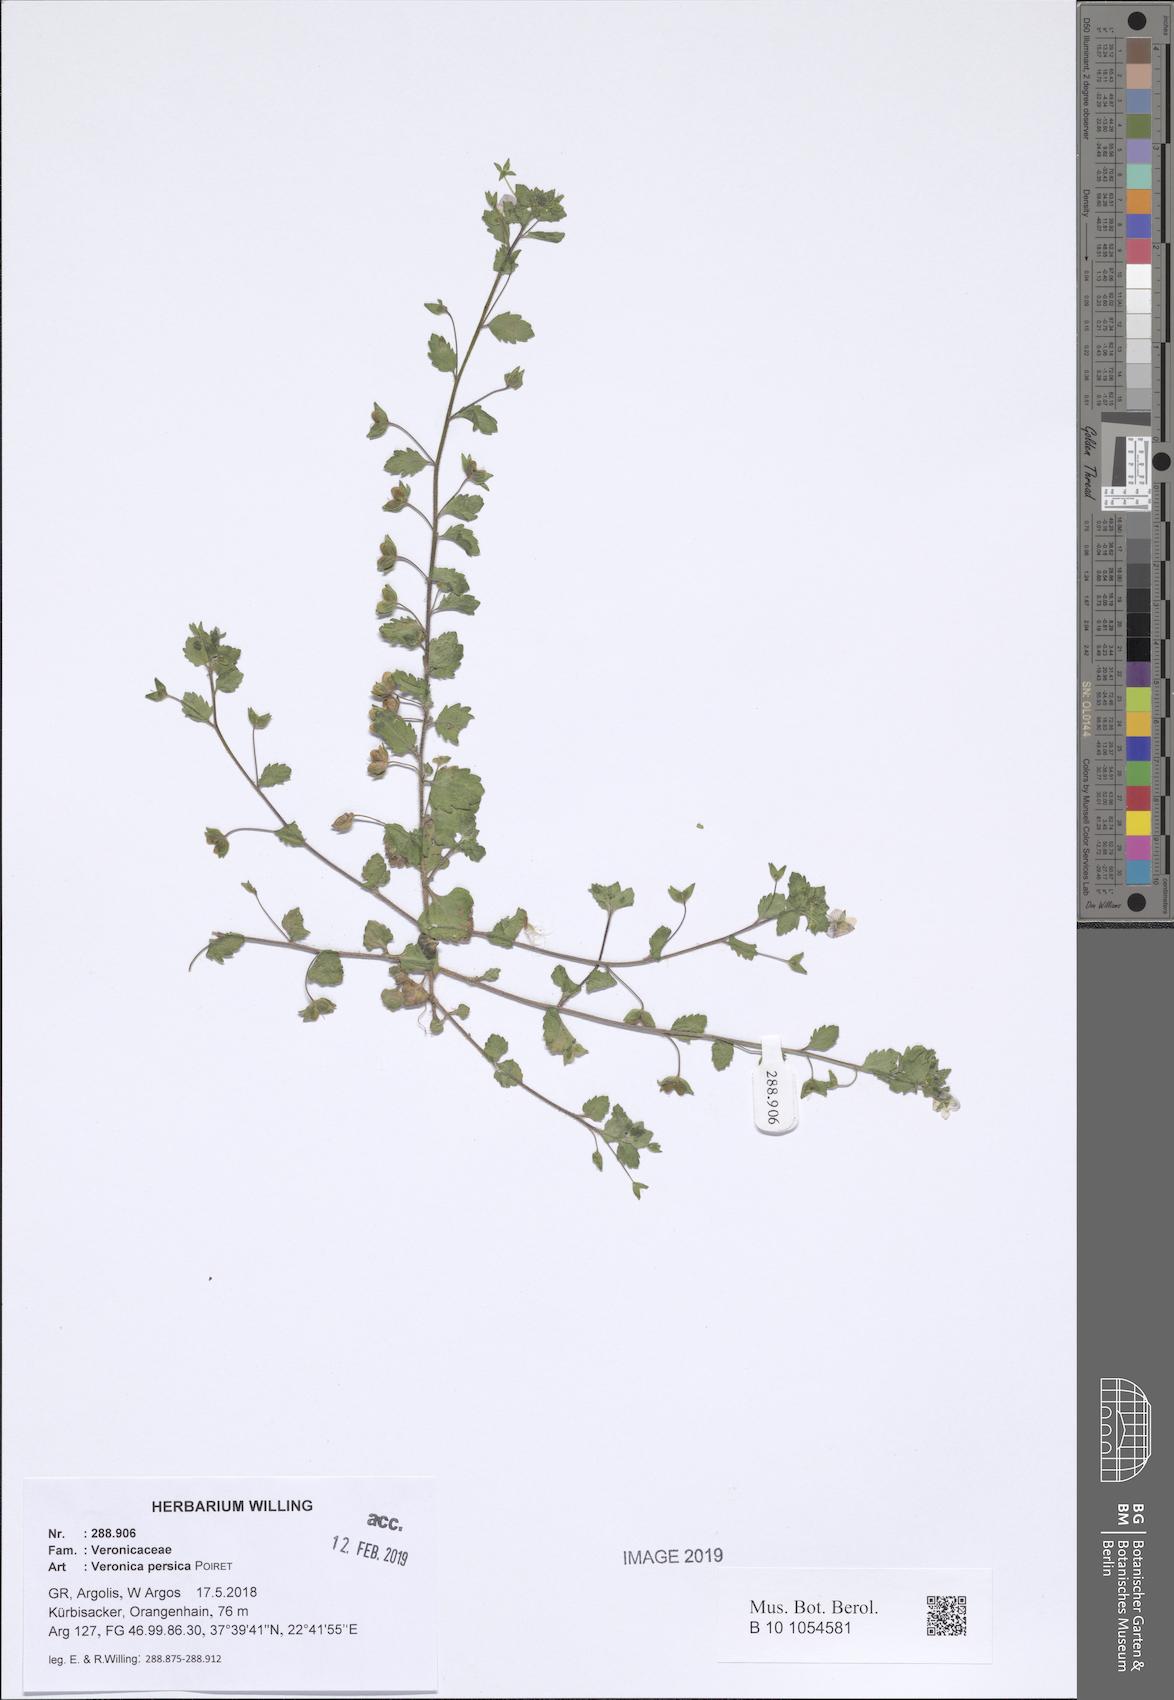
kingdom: Plantae
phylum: Tracheophyta
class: Magnoliopsida
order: Lamiales
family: Plantaginaceae
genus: Veronica
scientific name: Veronica persica
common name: Common field-speedwell
